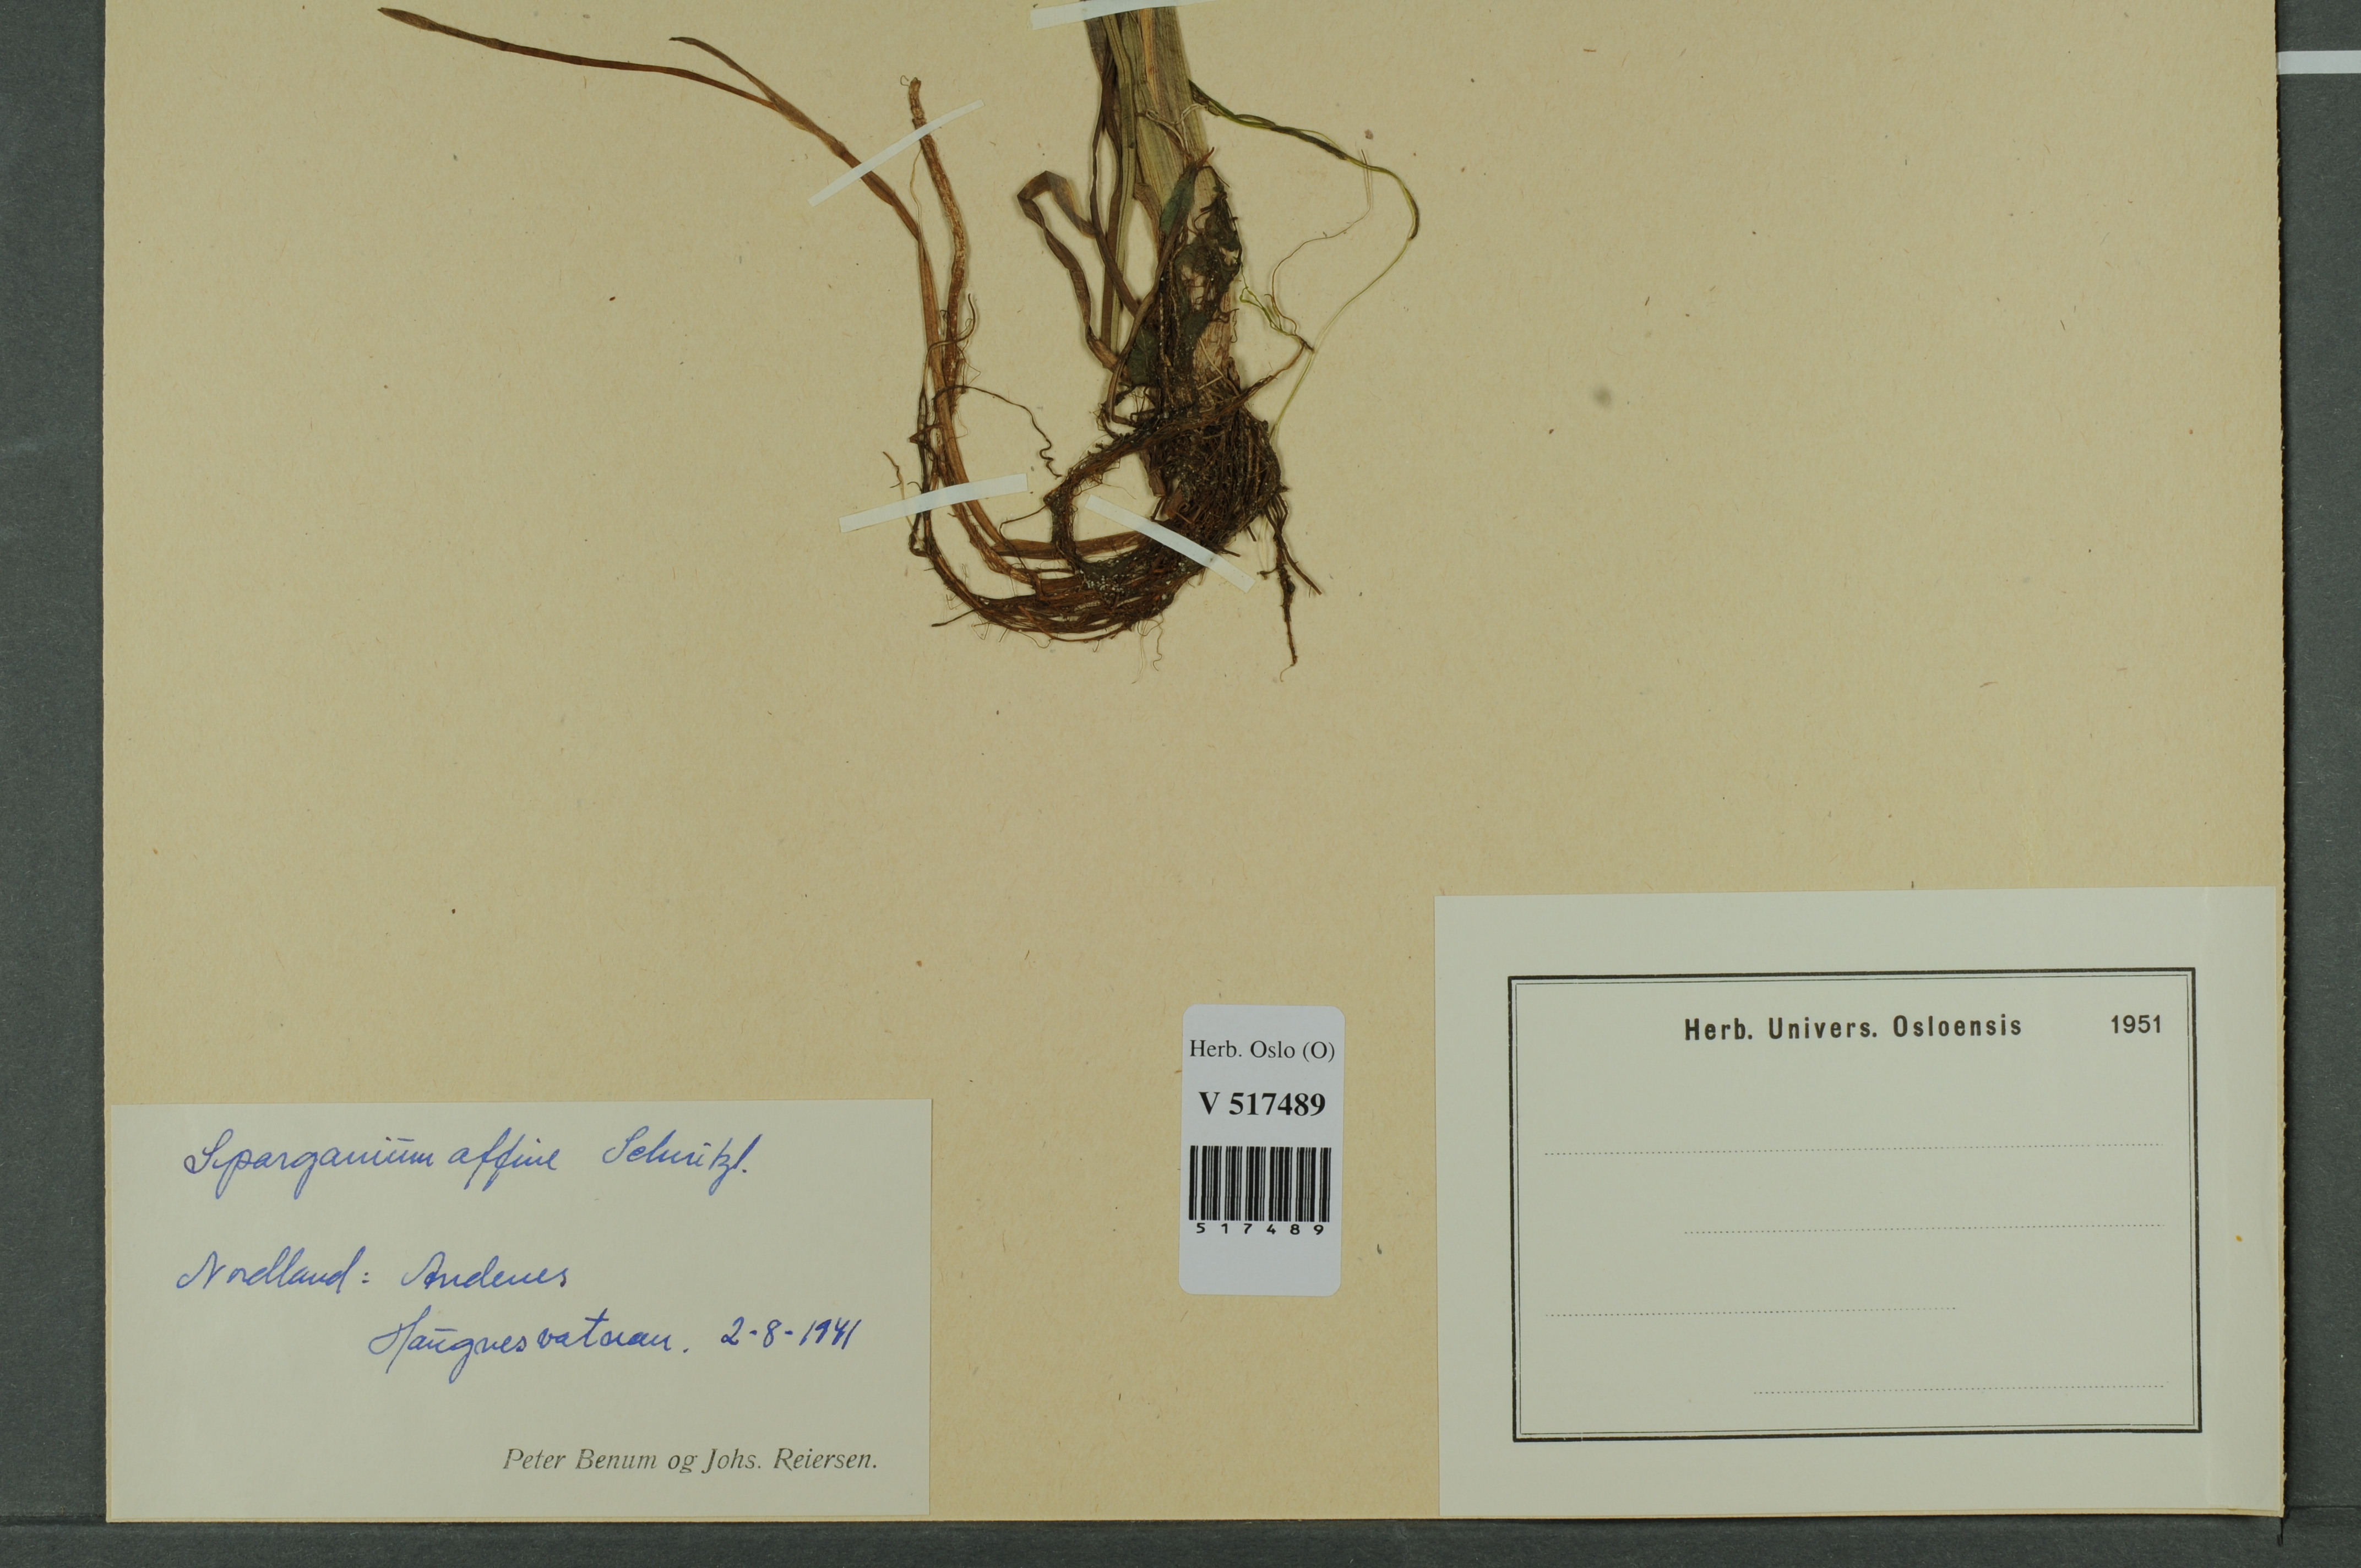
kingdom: Plantae
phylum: Tracheophyta
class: Liliopsida
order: Poales
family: Typhaceae
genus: Sparganium
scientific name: Sparganium angustifolium
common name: Floating bur-reed
